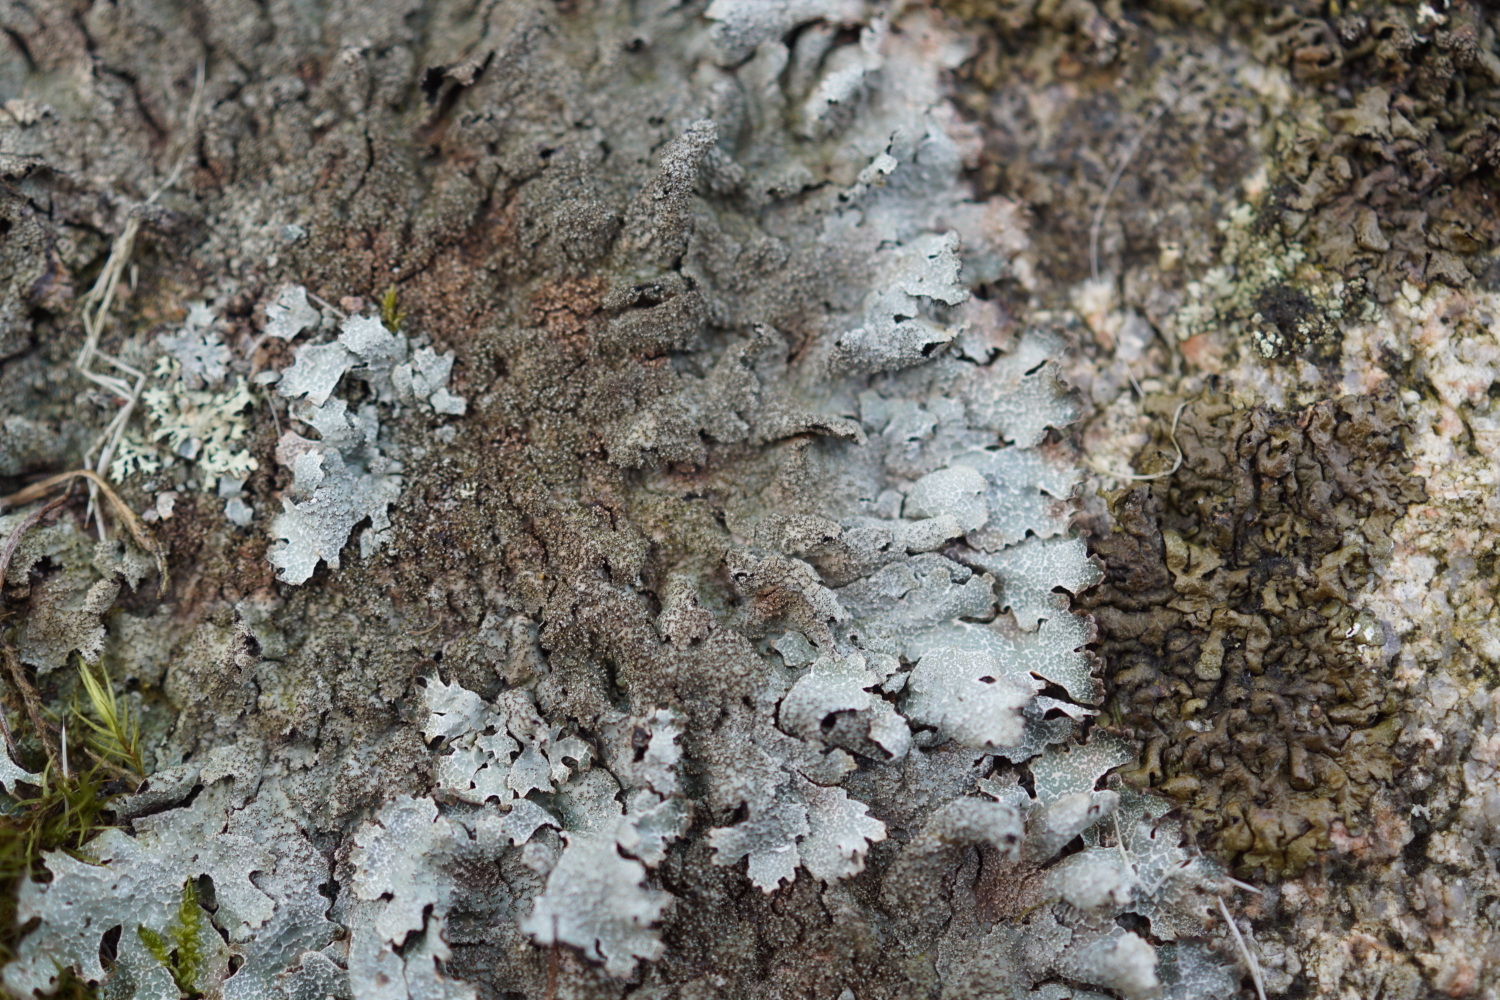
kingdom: Fungi
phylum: Ascomycota
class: Lecanoromycetes
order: Lecanorales
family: Parmeliaceae
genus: Parmelia
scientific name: Parmelia saxatilis
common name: farve-skållav
